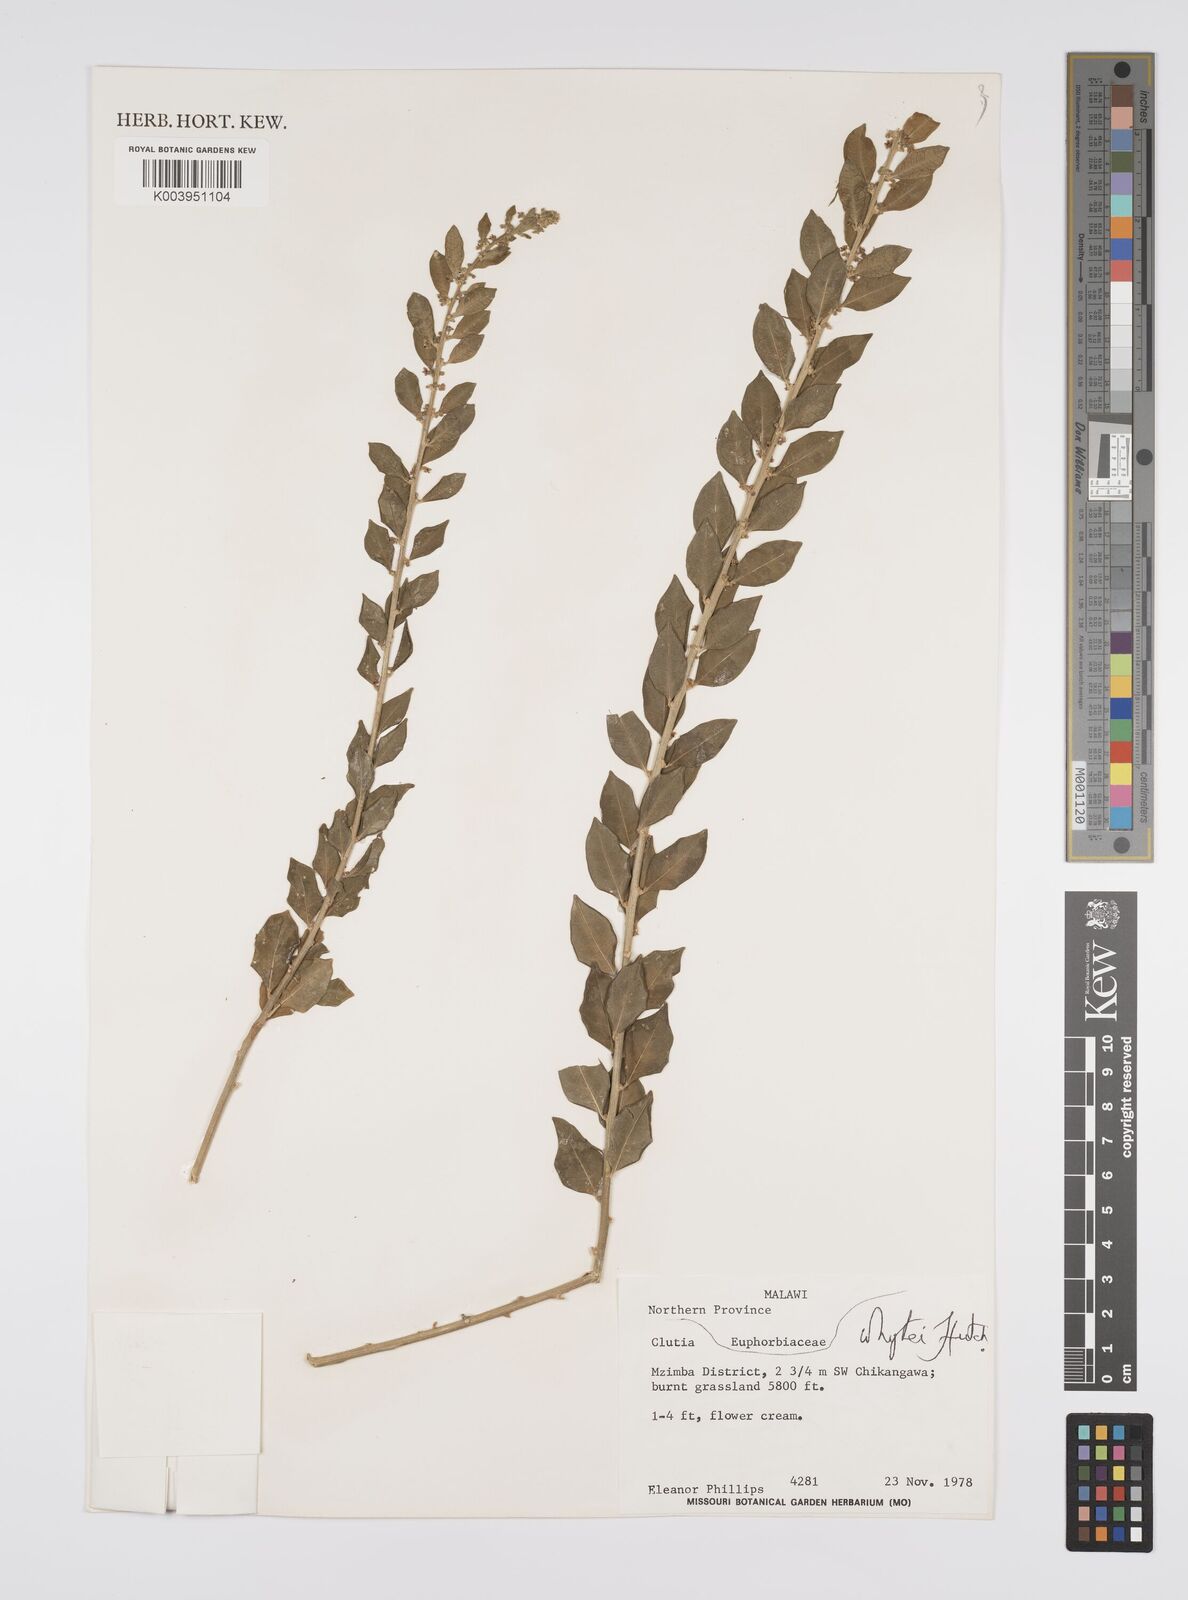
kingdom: Plantae
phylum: Tracheophyta
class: Magnoliopsida
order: Malpighiales
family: Peraceae
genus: Clutia
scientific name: Clutia whytei
